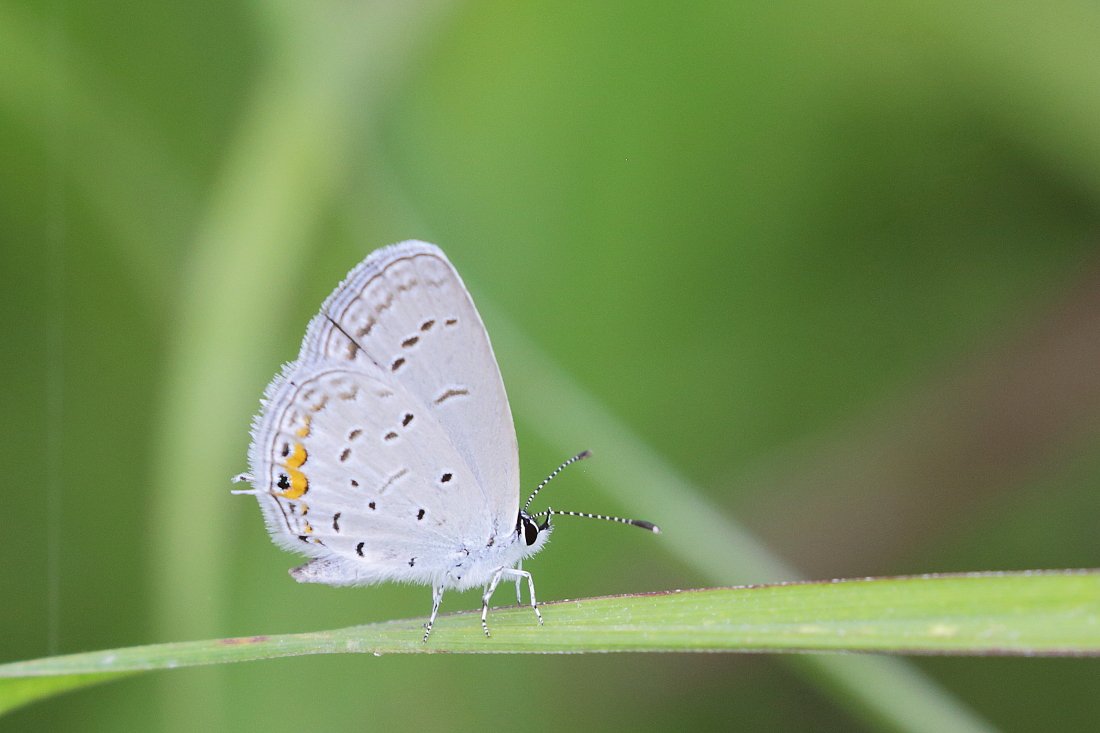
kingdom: Animalia
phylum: Arthropoda
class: Insecta
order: Lepidoptera
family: Lycaenidae
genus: Elkalyce
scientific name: Elkalyce comyntas
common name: Eastern Tailed-Blue
